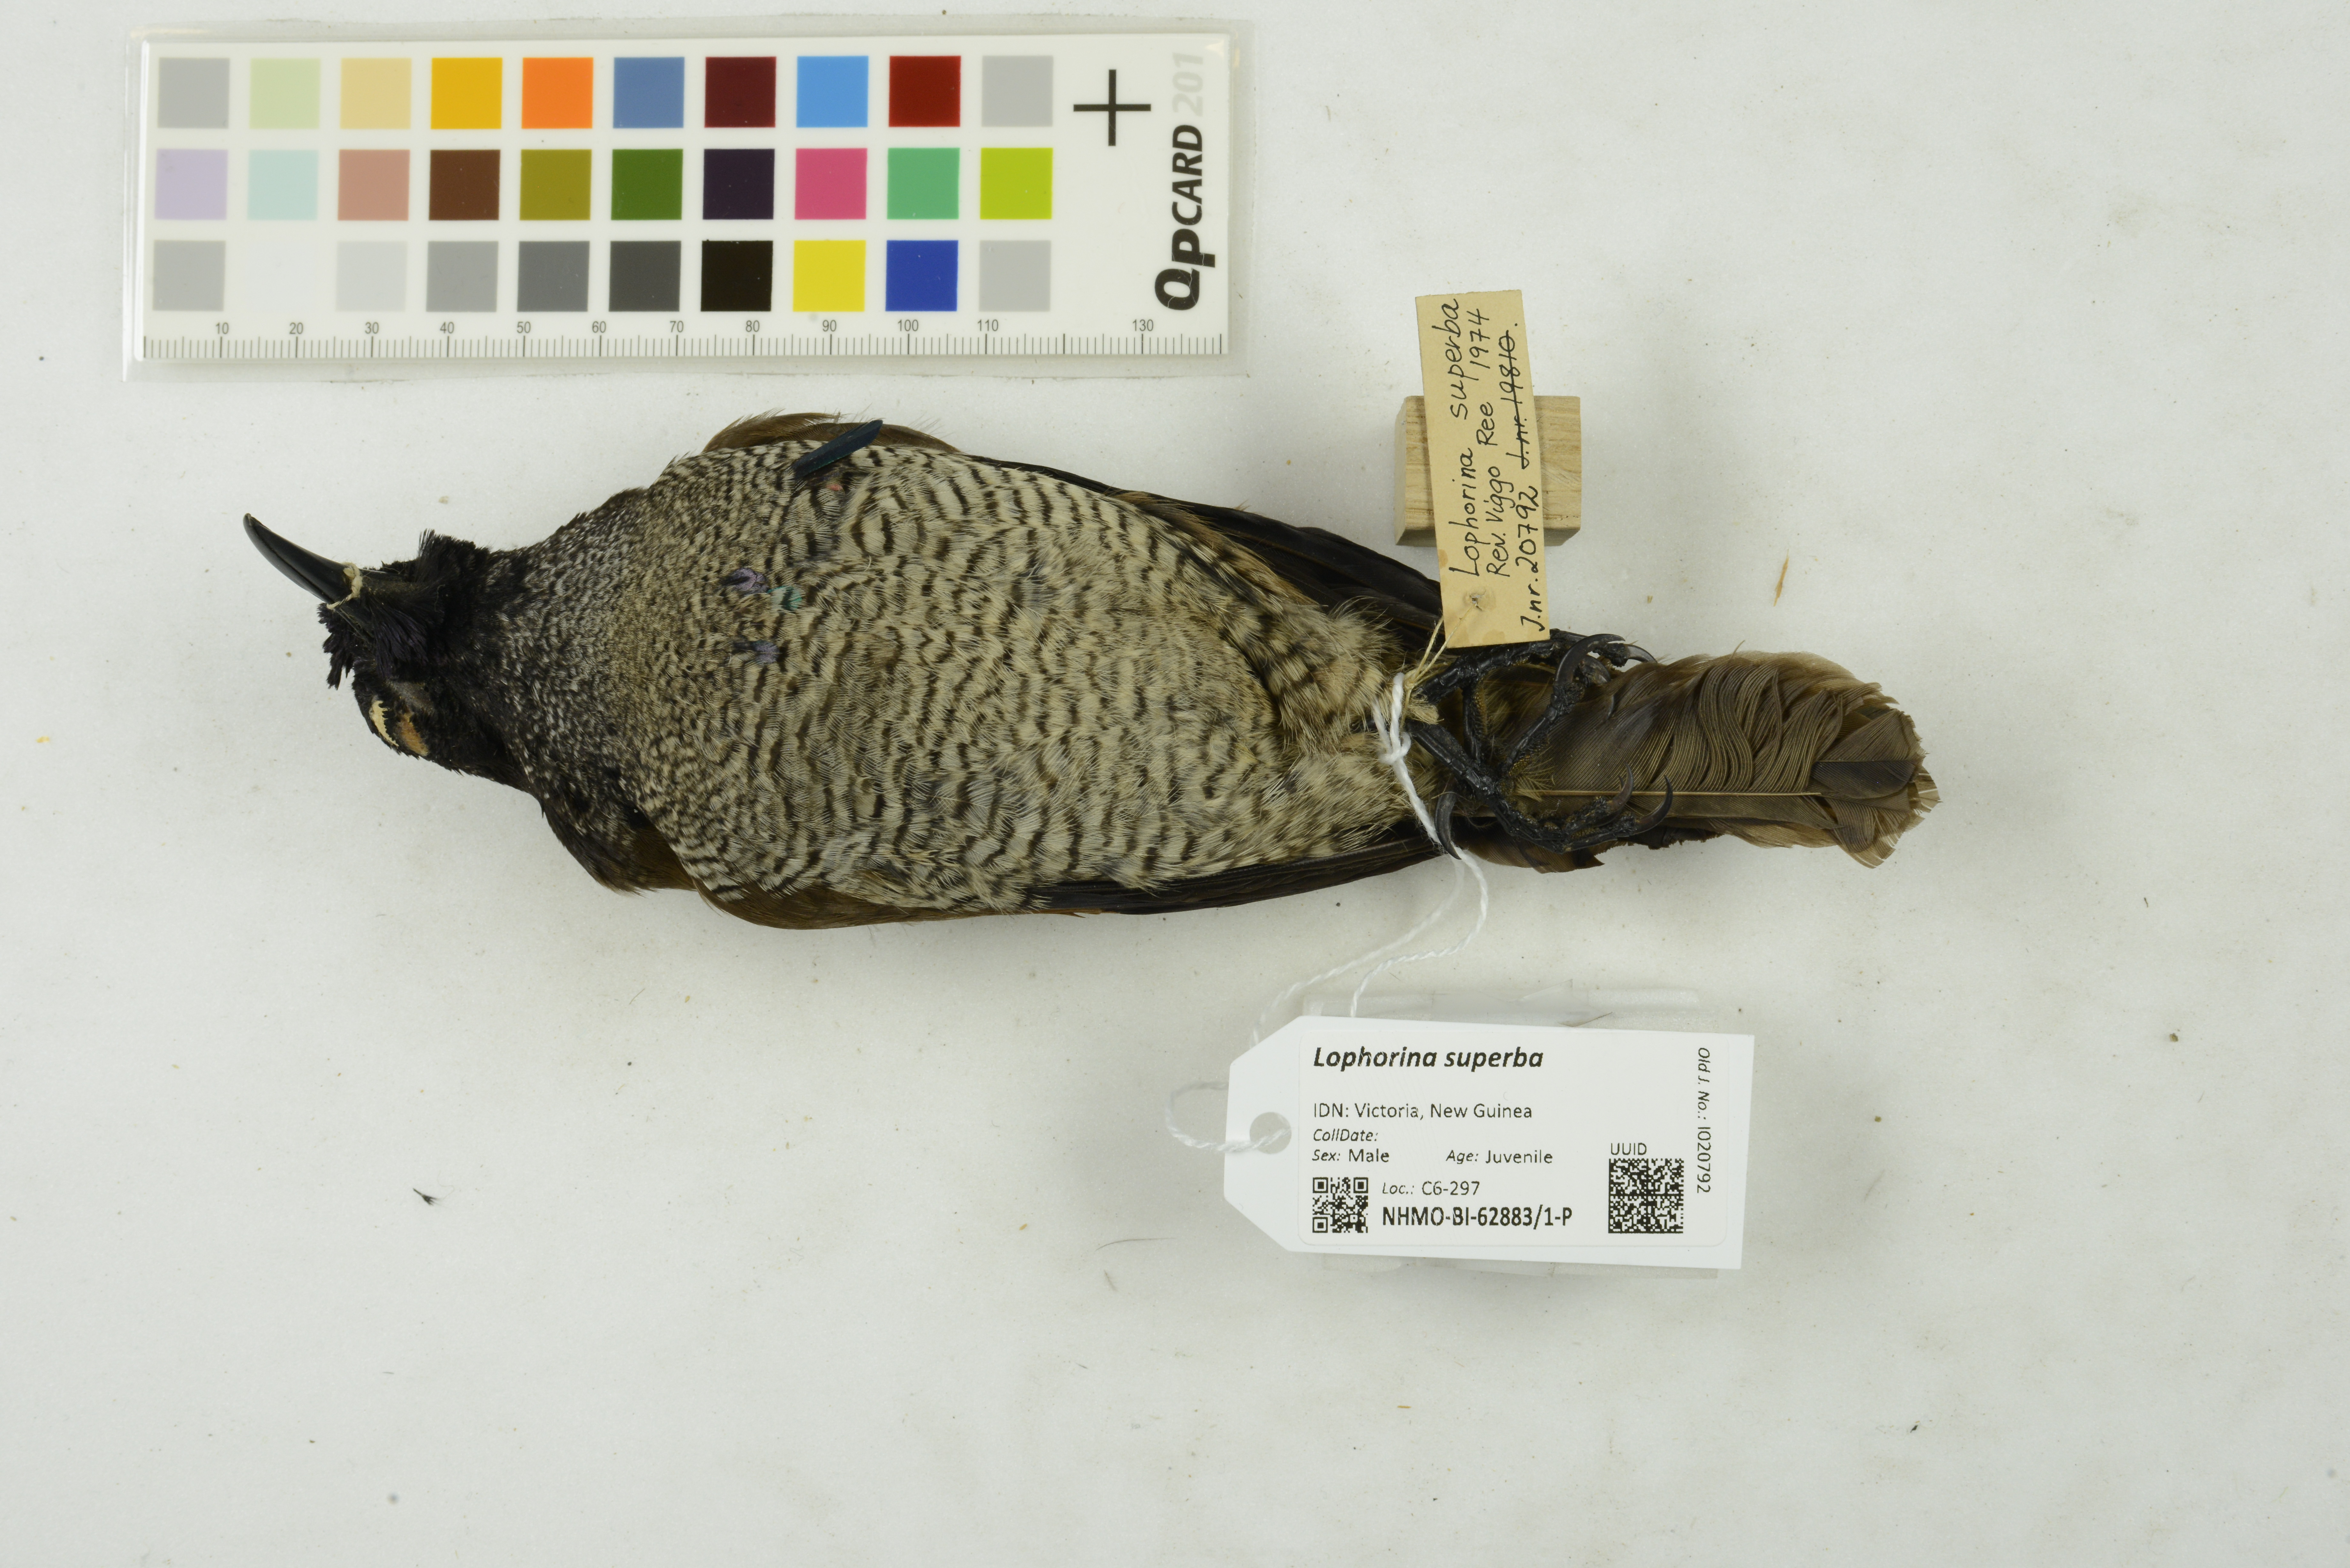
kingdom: Animalia
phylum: Chordata
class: Aves
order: Passeriformes
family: Paradisaeidae
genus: Lophorina
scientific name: Lophorina superba
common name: Superb bird-of-paradise
